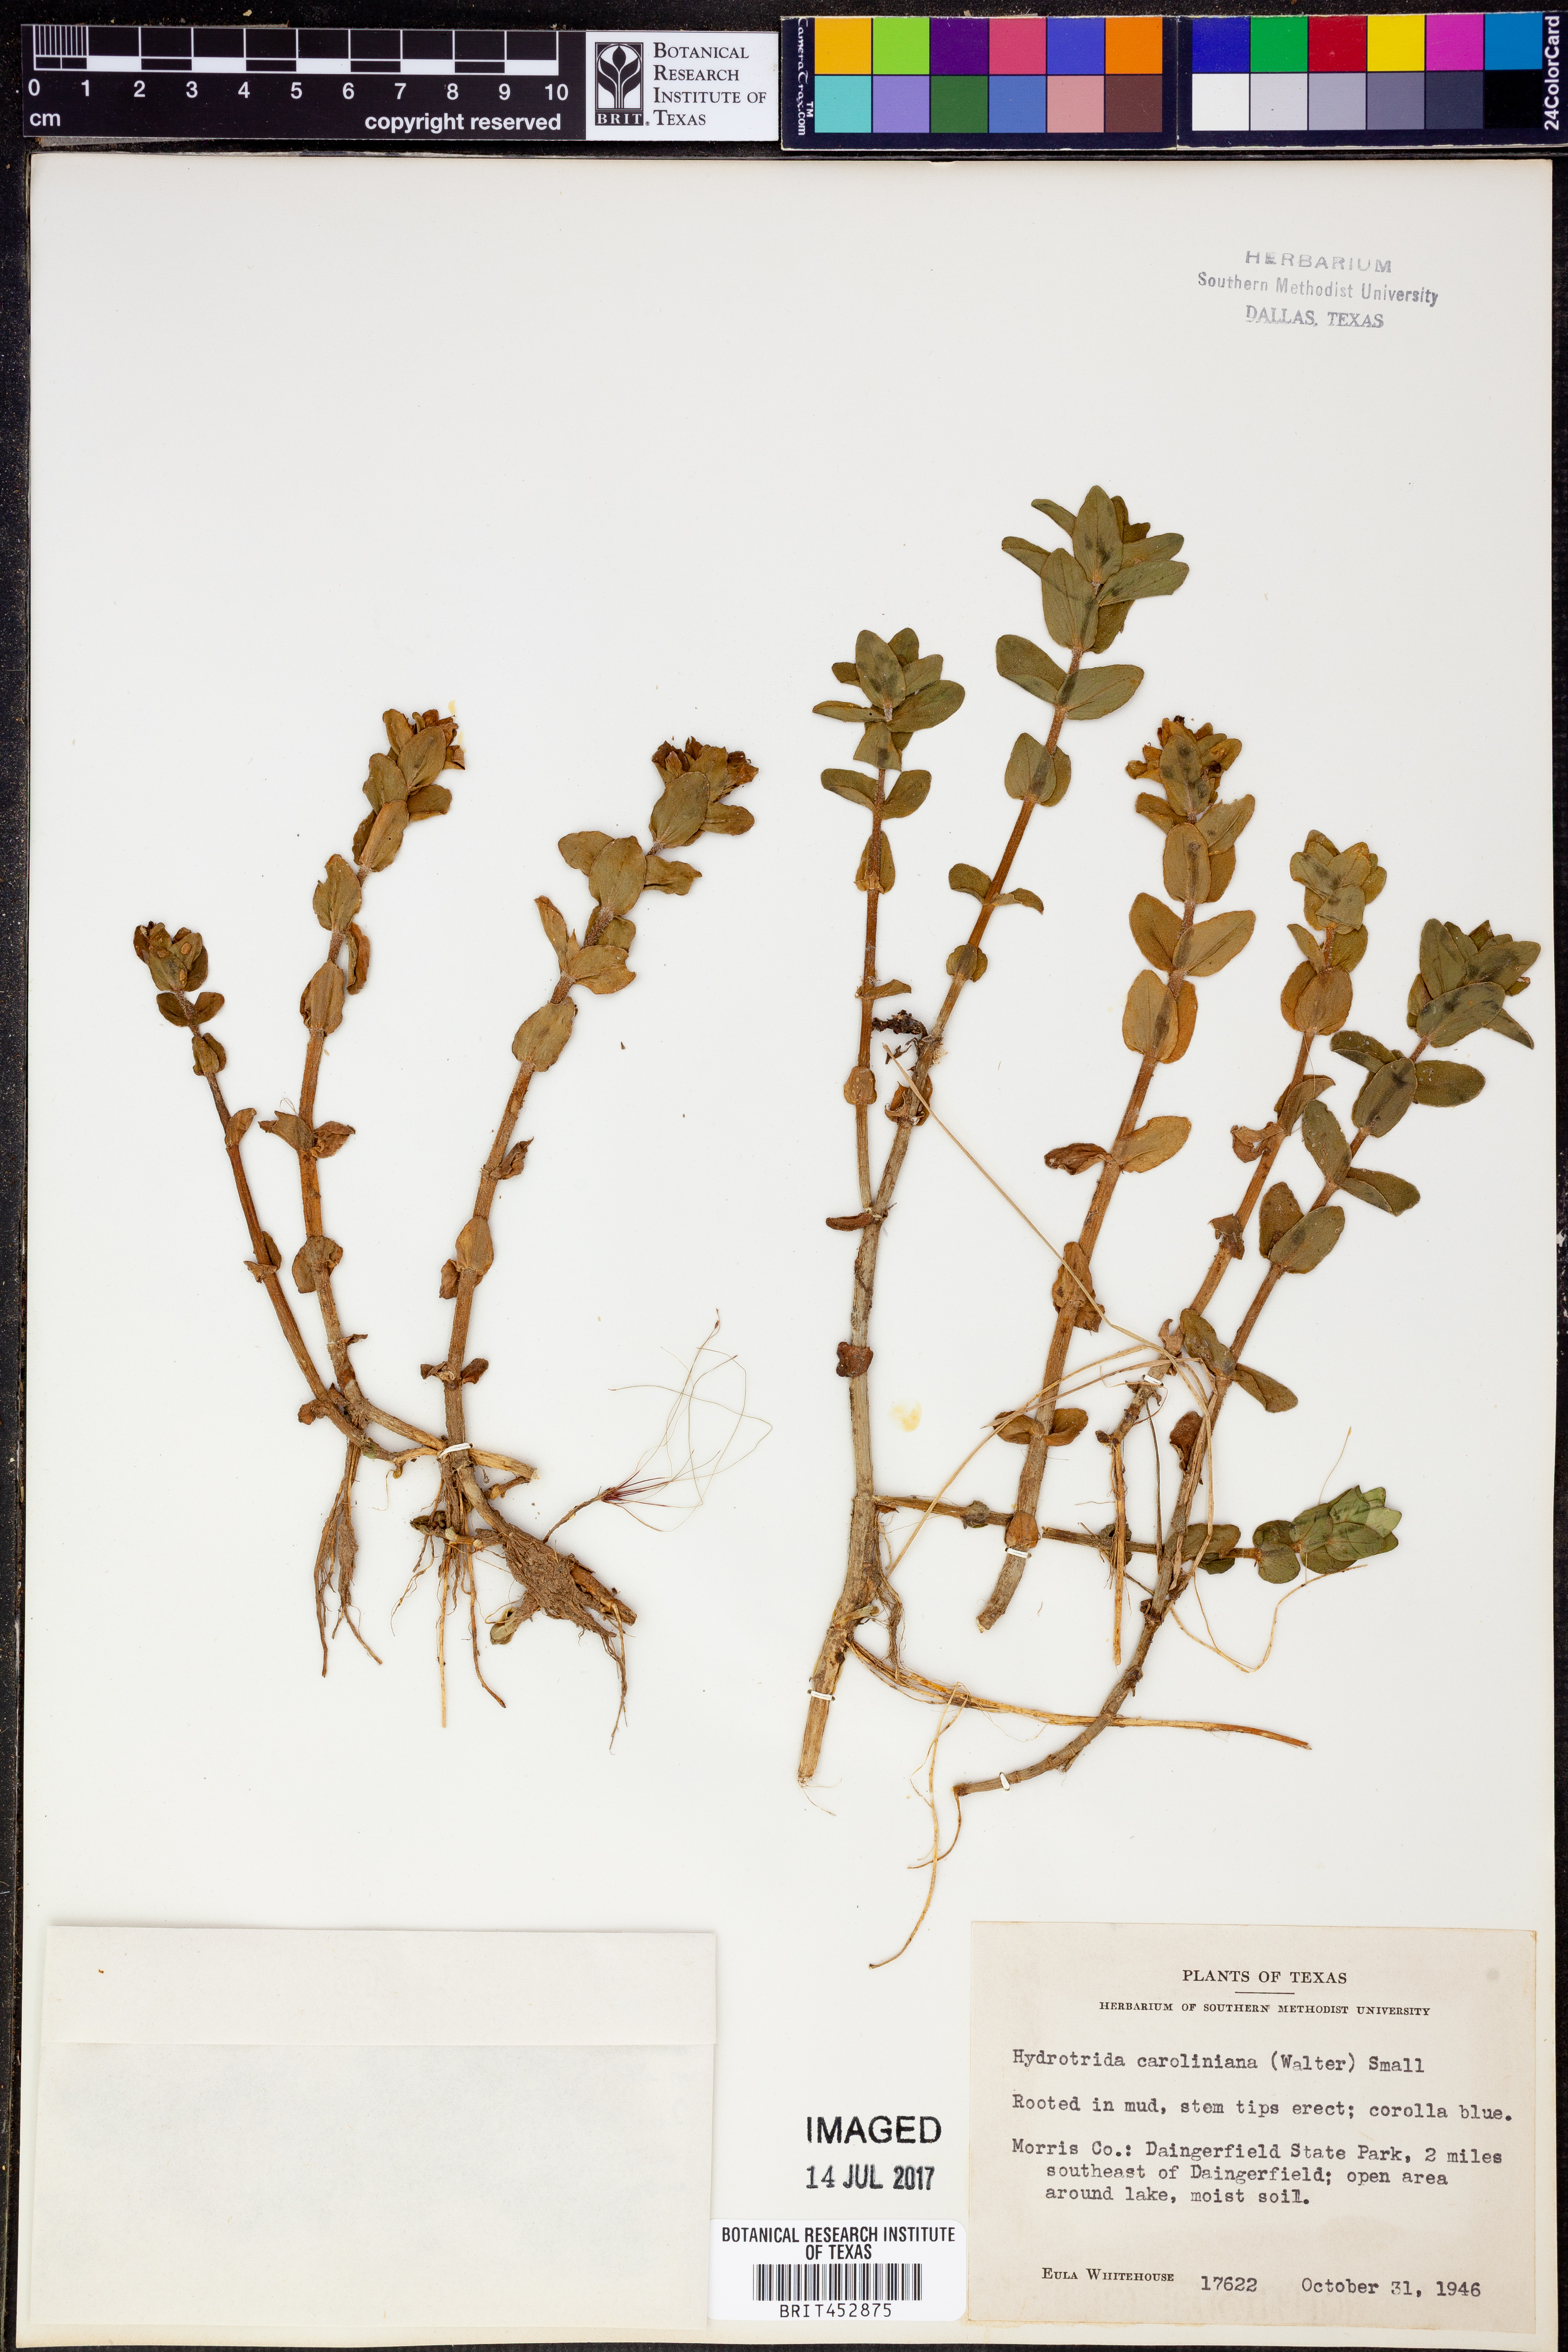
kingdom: Plantae
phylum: Tracheophyta
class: Magnoliopsida
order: Lamiales
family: Plantaginaceae
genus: Bacopa
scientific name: Bacopa caroliniana
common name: Lemon bacopa
